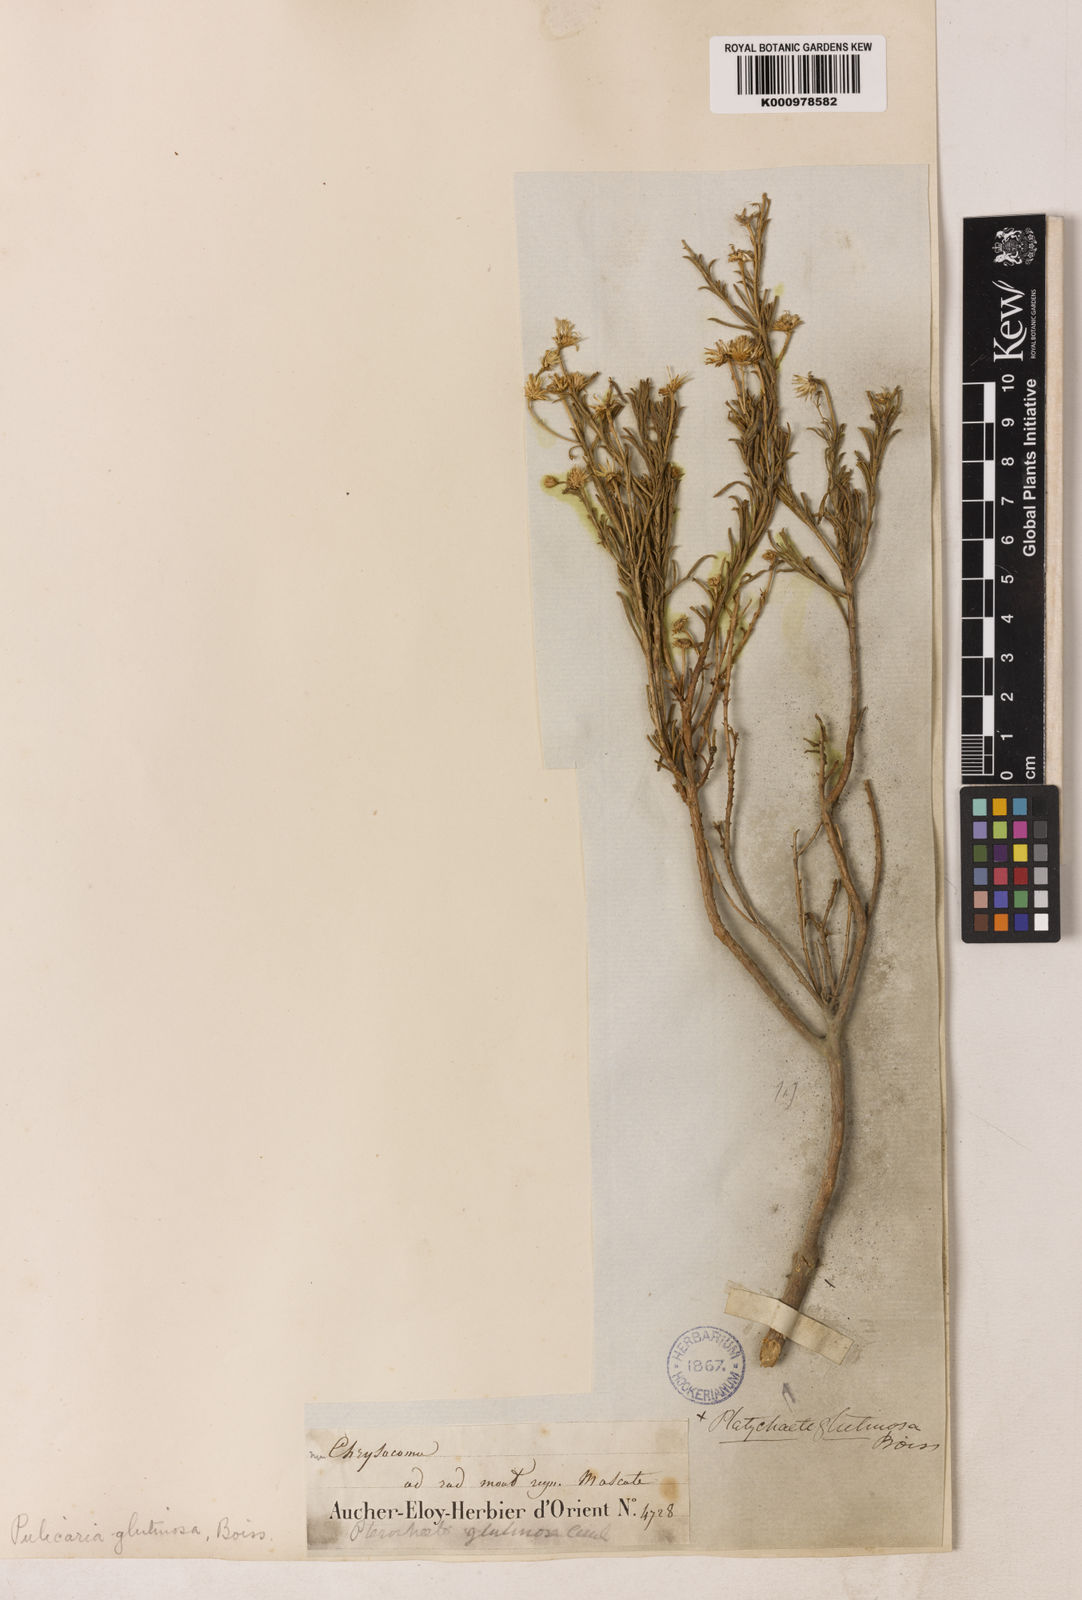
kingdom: Plantae
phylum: Tracheophyta
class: Magnoliopsida
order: Asterales
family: Asteraceae
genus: Pulicaria
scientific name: Pulicaria glutinosa
